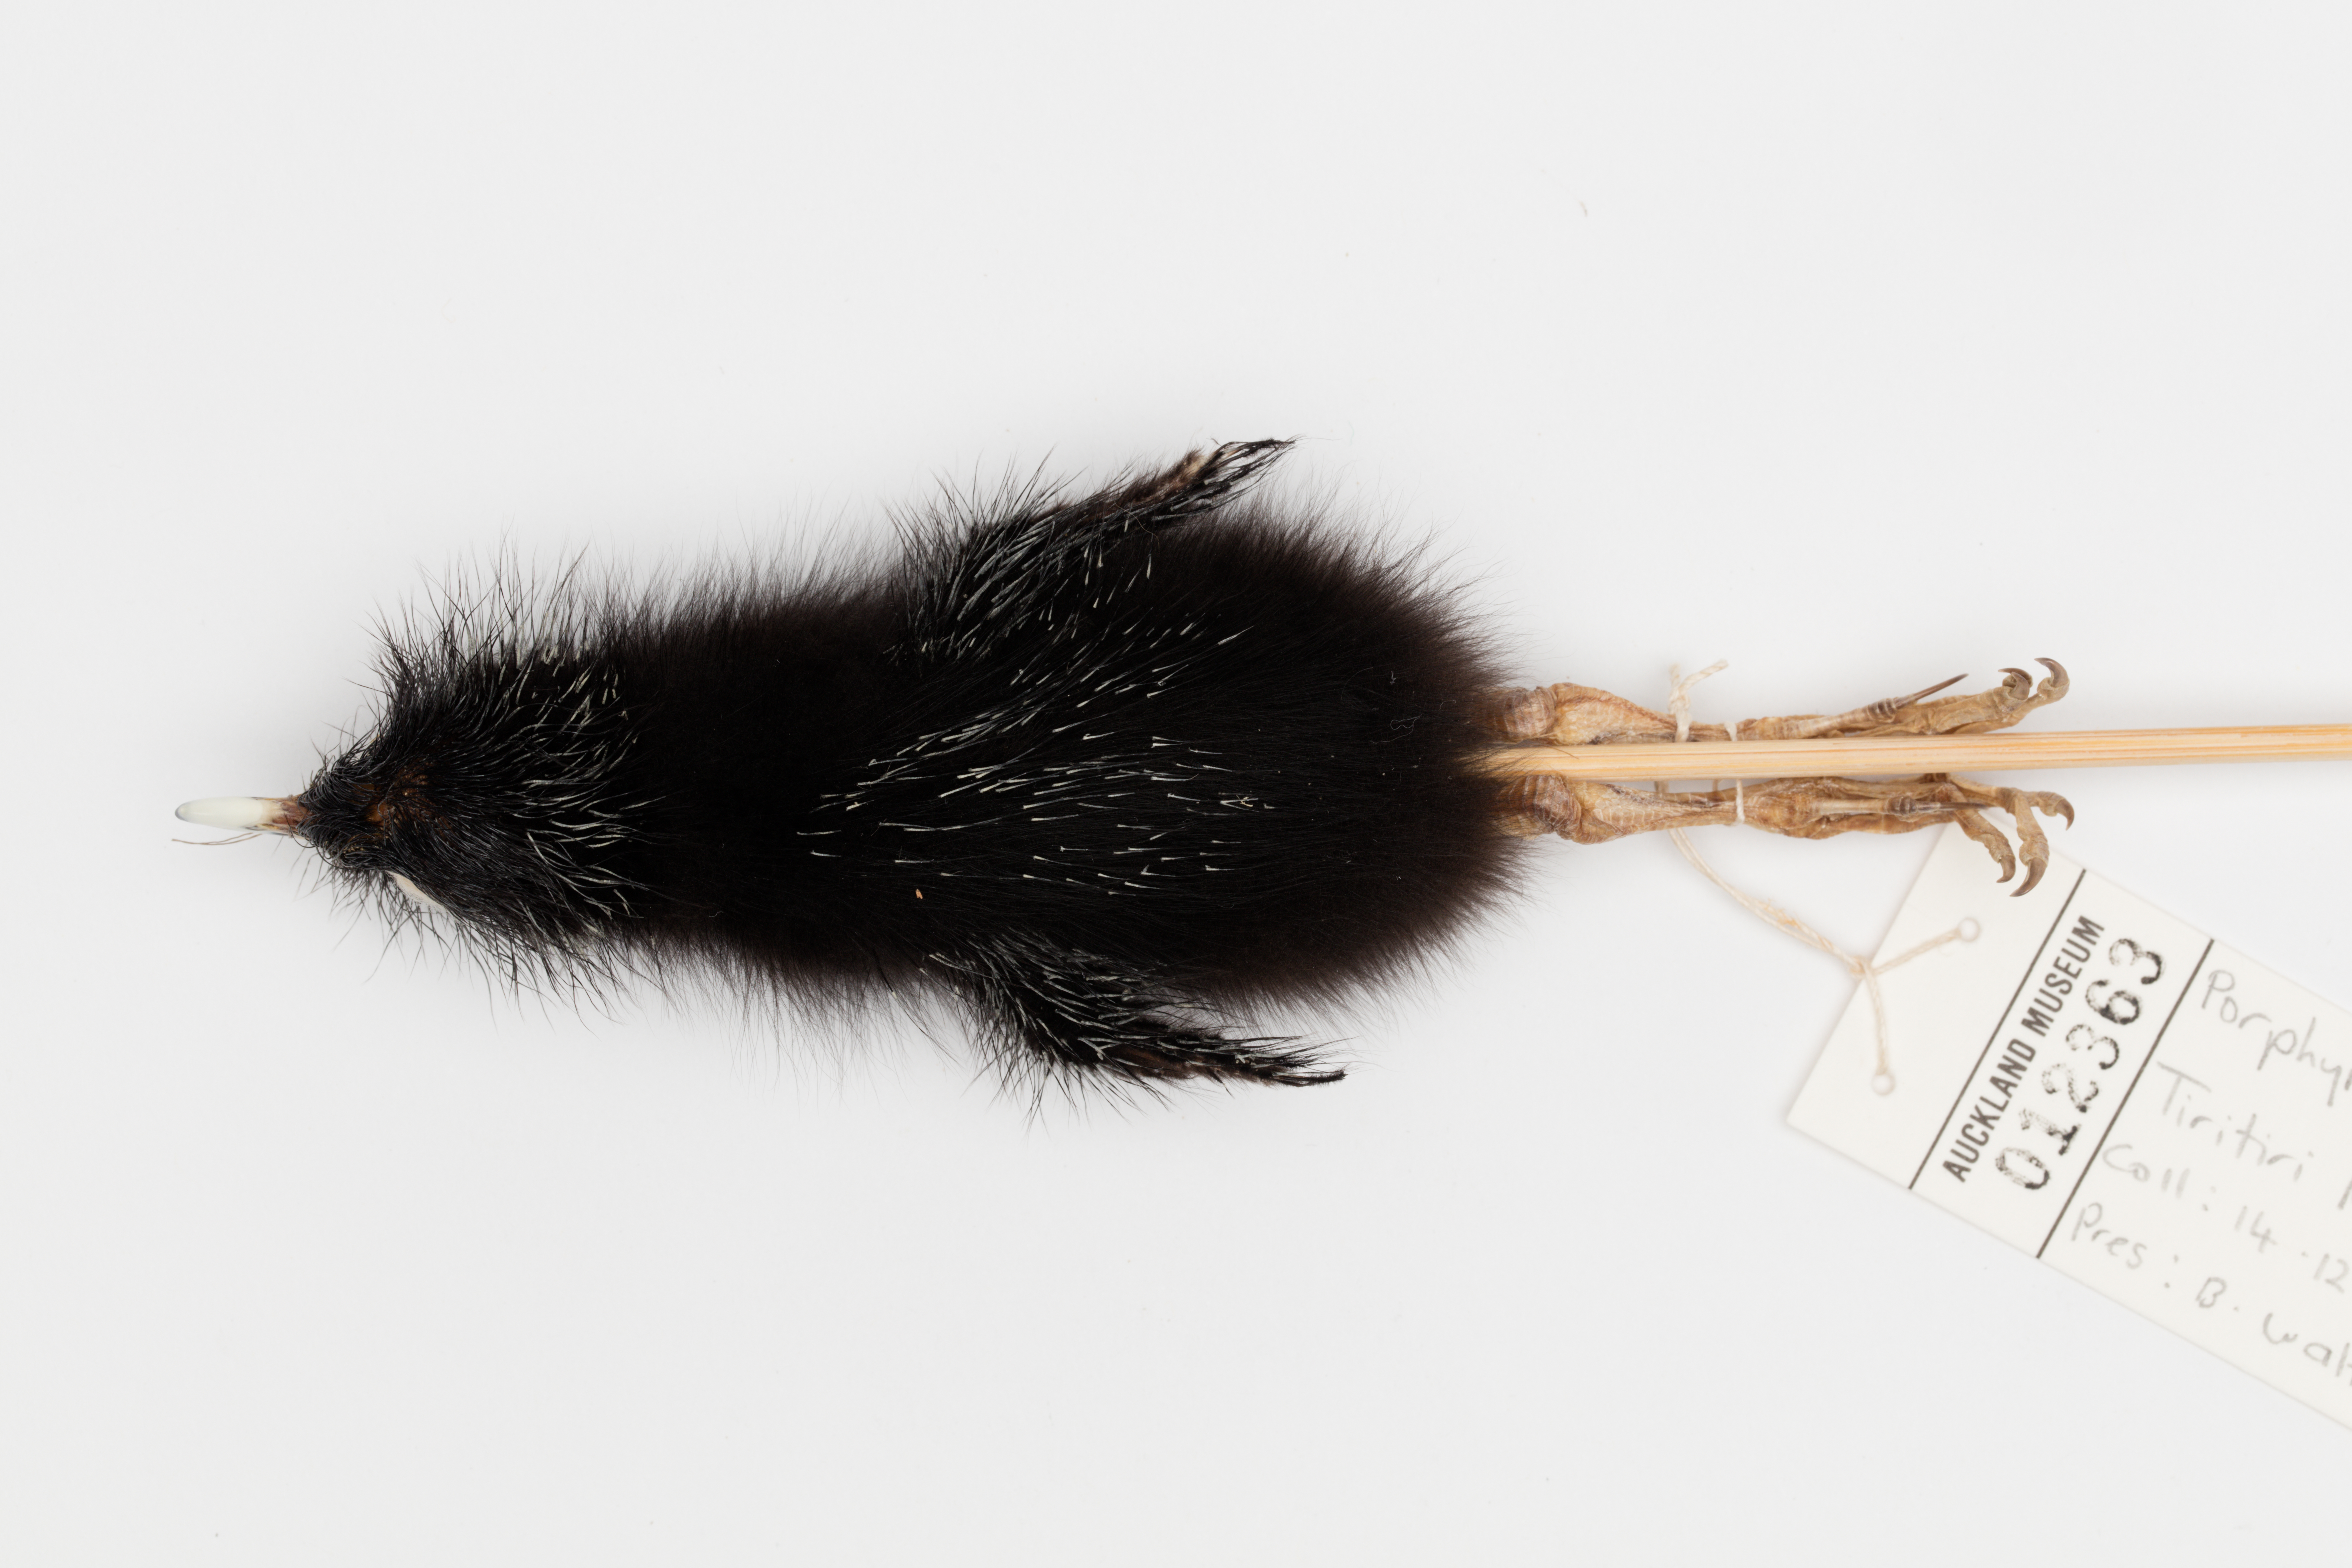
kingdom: Animalia
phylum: Chordata
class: Aves
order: Gruiformes
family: Rallidae
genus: Porphyrio
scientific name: Porphyrio melanotus
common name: Australasian swamphen
